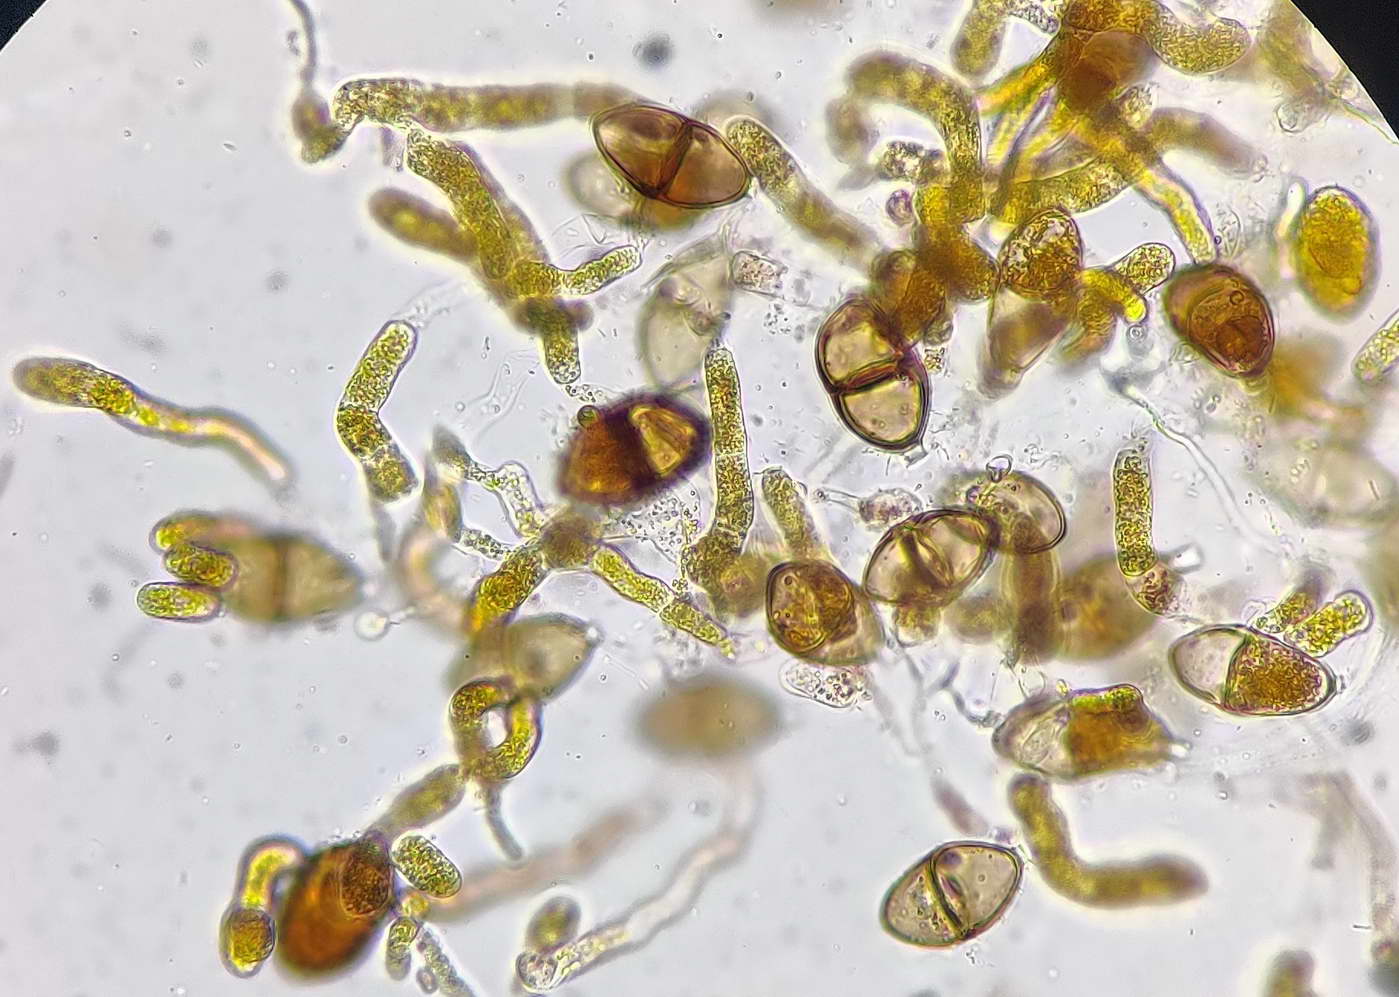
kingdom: Fungi
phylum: Basidiomycota
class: Pucciniomycetes
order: Pucciniales
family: Gymnosporangiaceae
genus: Gymnosporangium
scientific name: Gymnosporangium sabinae
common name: pæregitter-bævrerust
